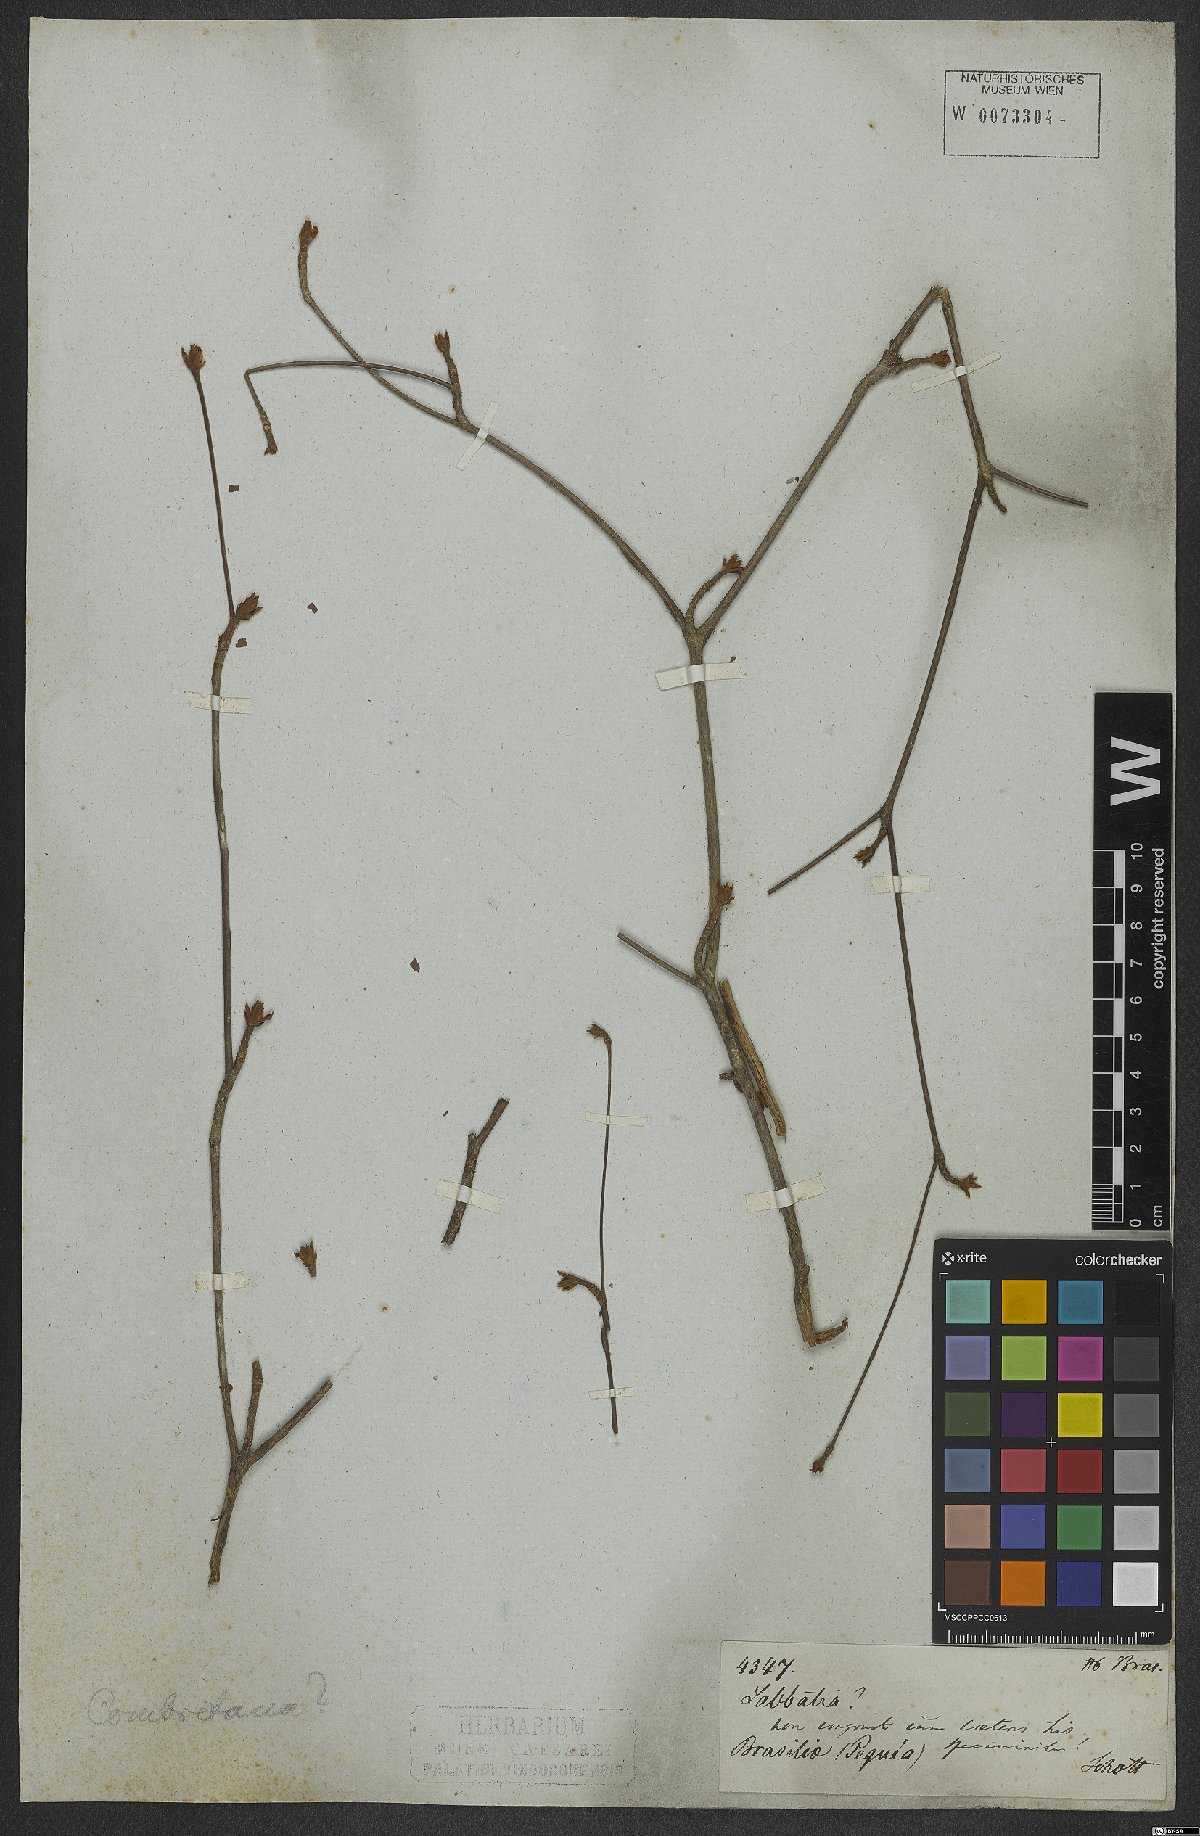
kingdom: Plantae
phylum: Tracheophyta
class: Magnoliopsida
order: Malvales
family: Thymelaeaceae
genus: Lagetta
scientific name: Lagetta
